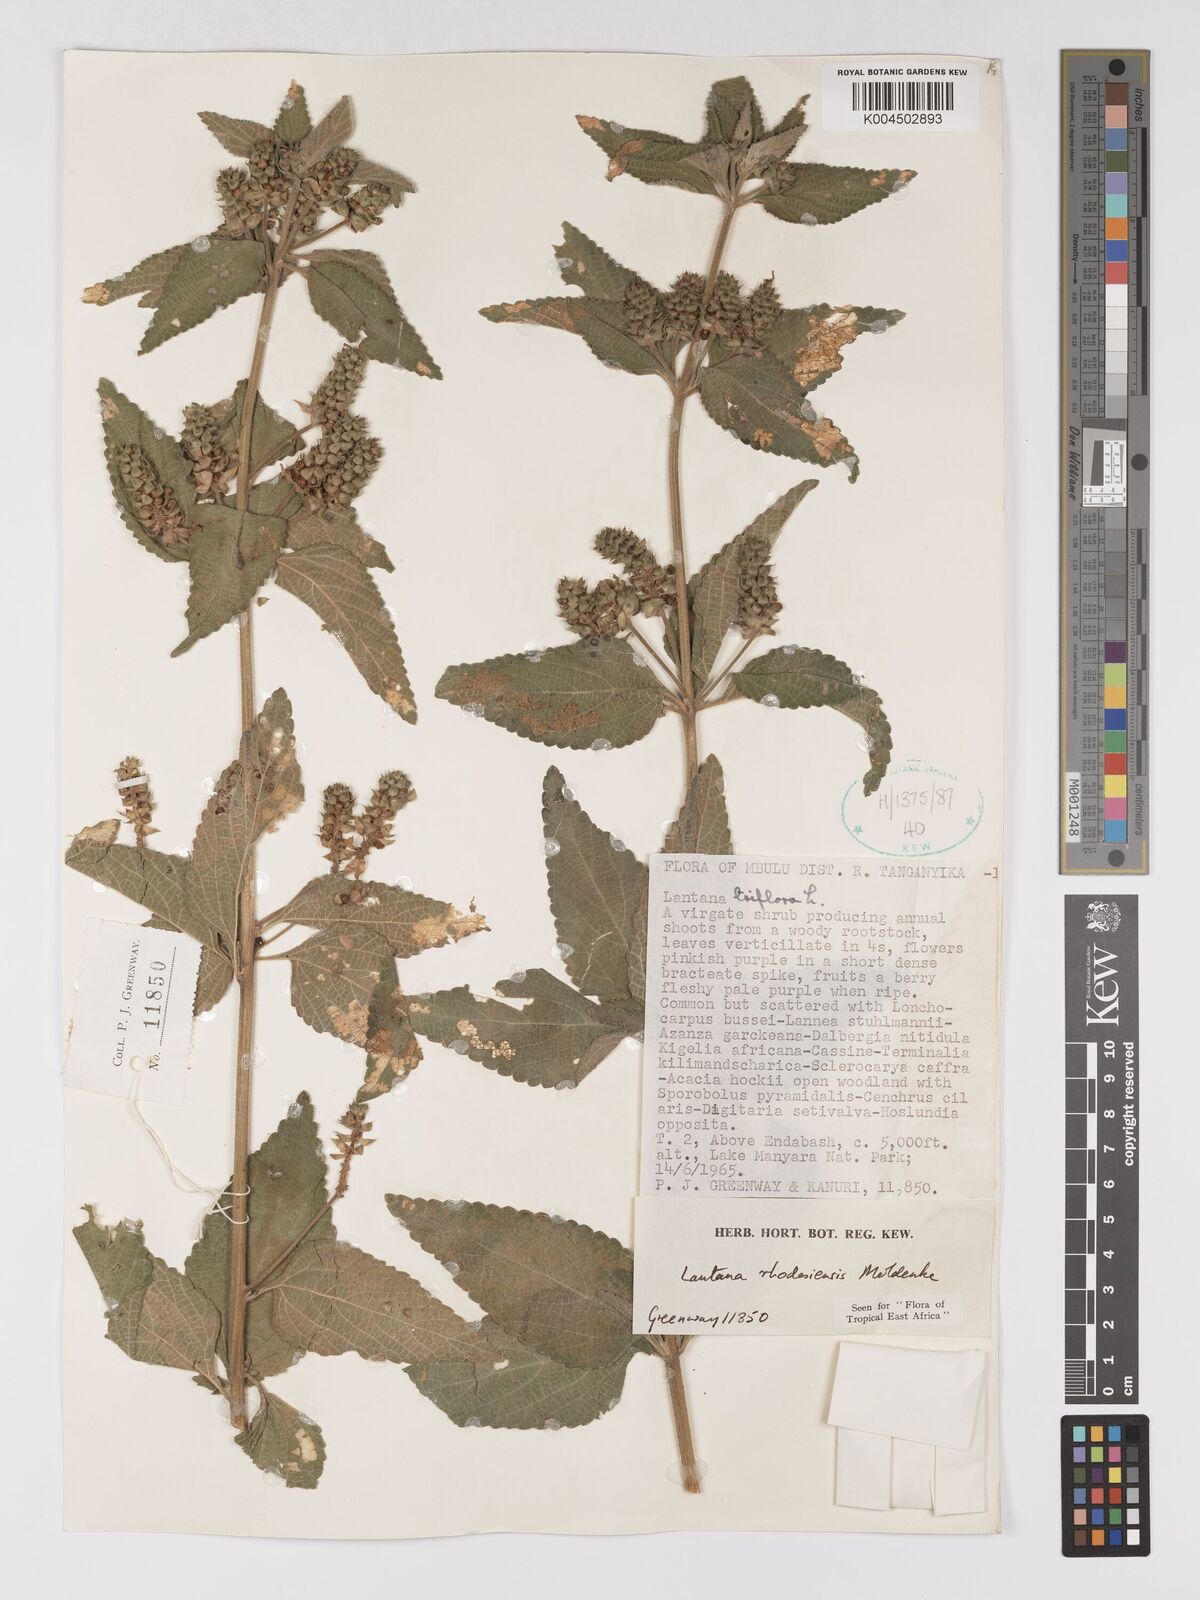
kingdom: Plantae
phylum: Tracheophyta
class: Magnoliopsida
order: Lamiales
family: Verbenaceae
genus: Lantana
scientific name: Lantana trifolia
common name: Sweet-sage
